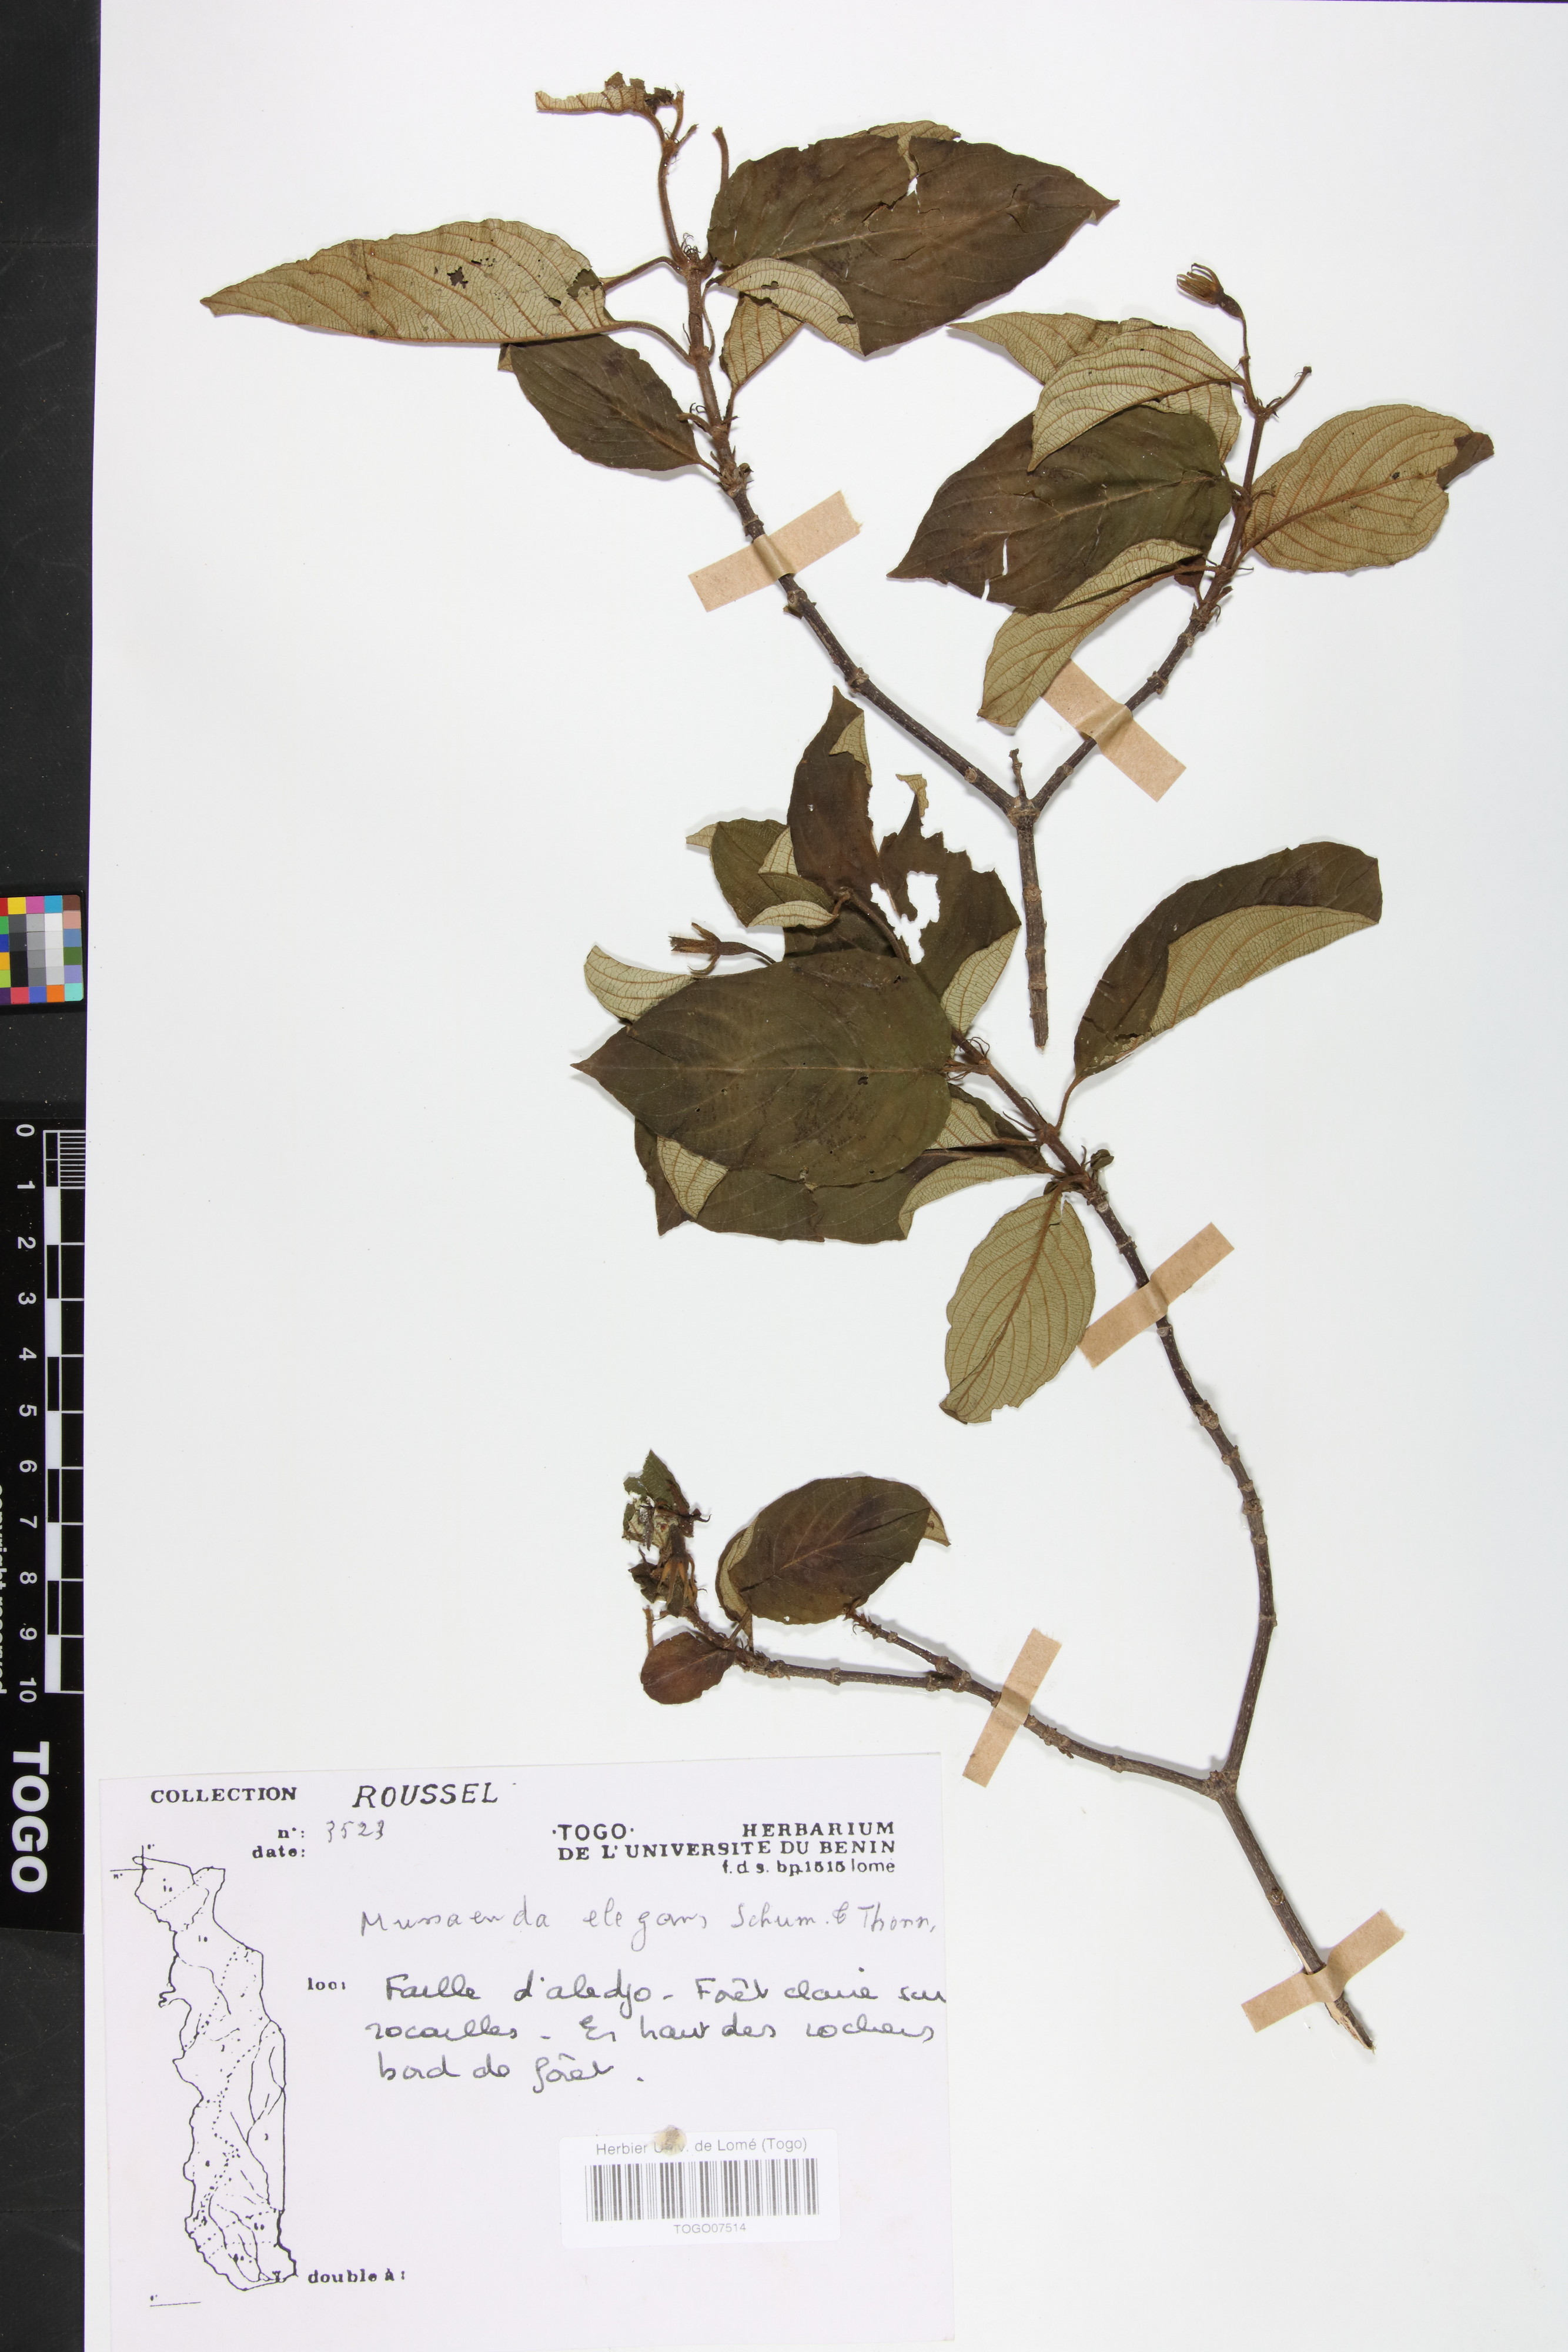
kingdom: Plantae
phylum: Tracheophyta
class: Magnoliopsida
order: Gentianales
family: Rubiaceae
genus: Mussaenda
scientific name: Mussaenda elegans
